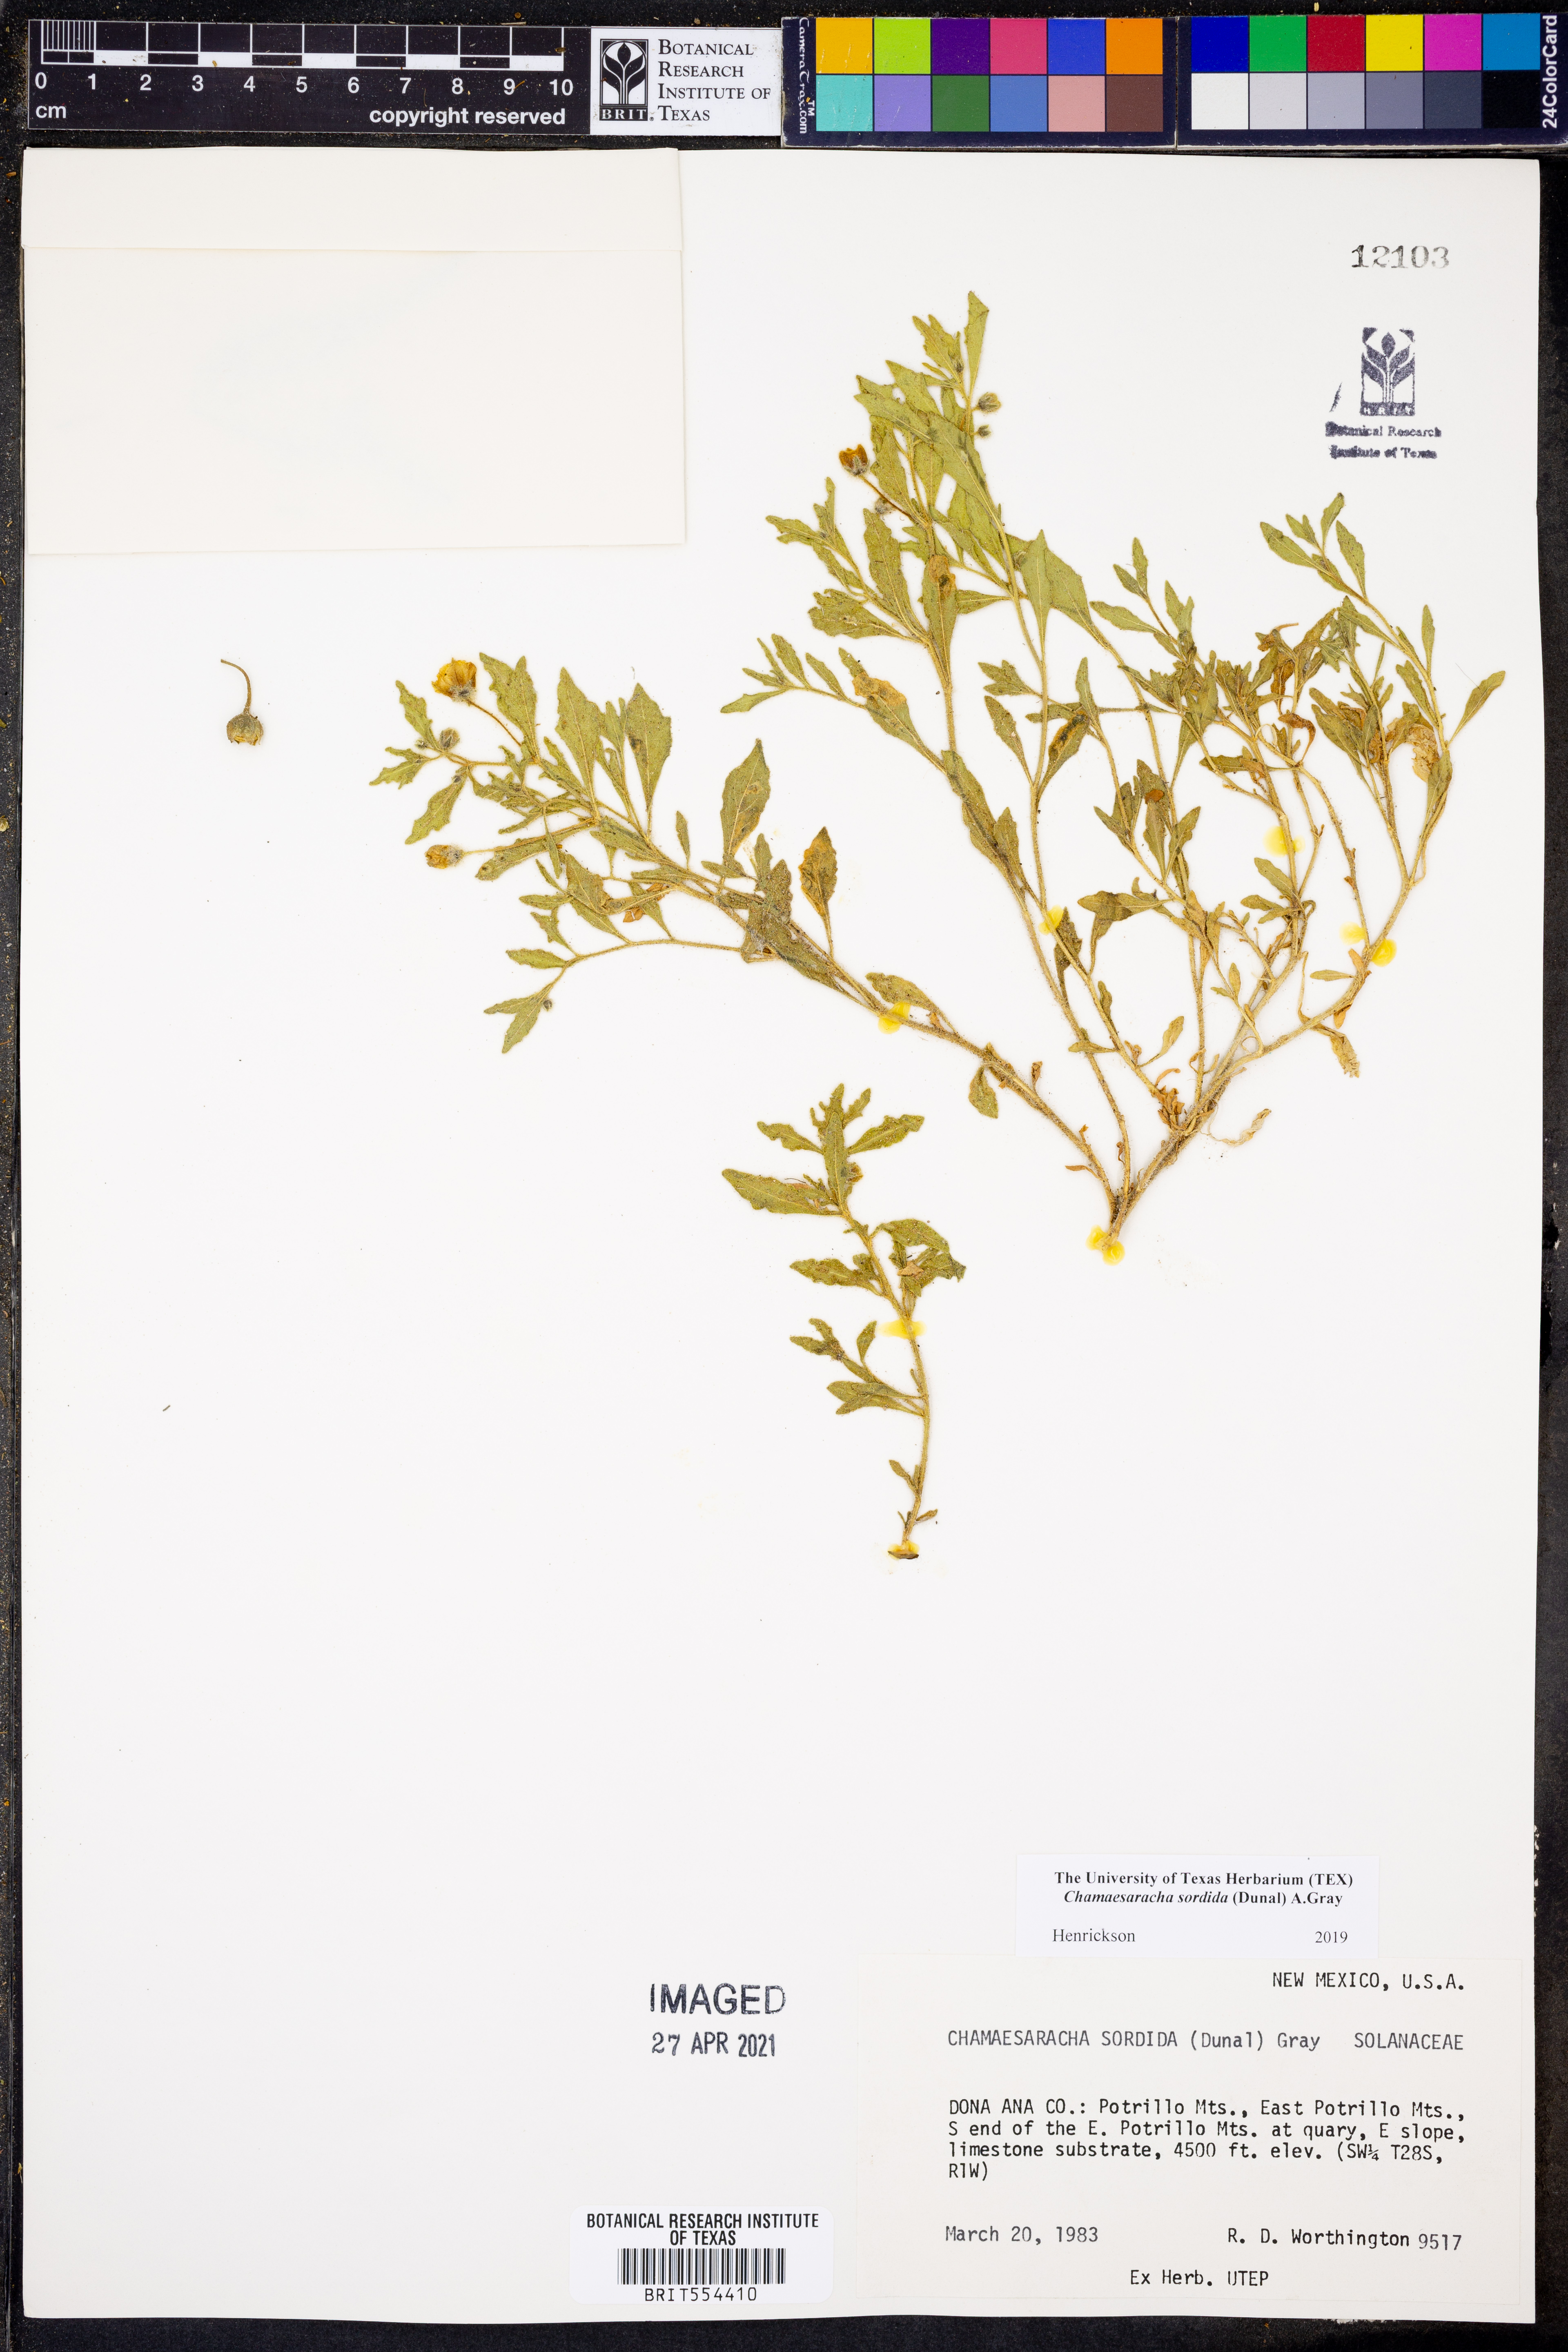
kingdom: Plantae
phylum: Tracheophyta
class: Magnoliopsida
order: Solanales
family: Solanaceae
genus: Chamaesaracha
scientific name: Chamaesaracha sordida
